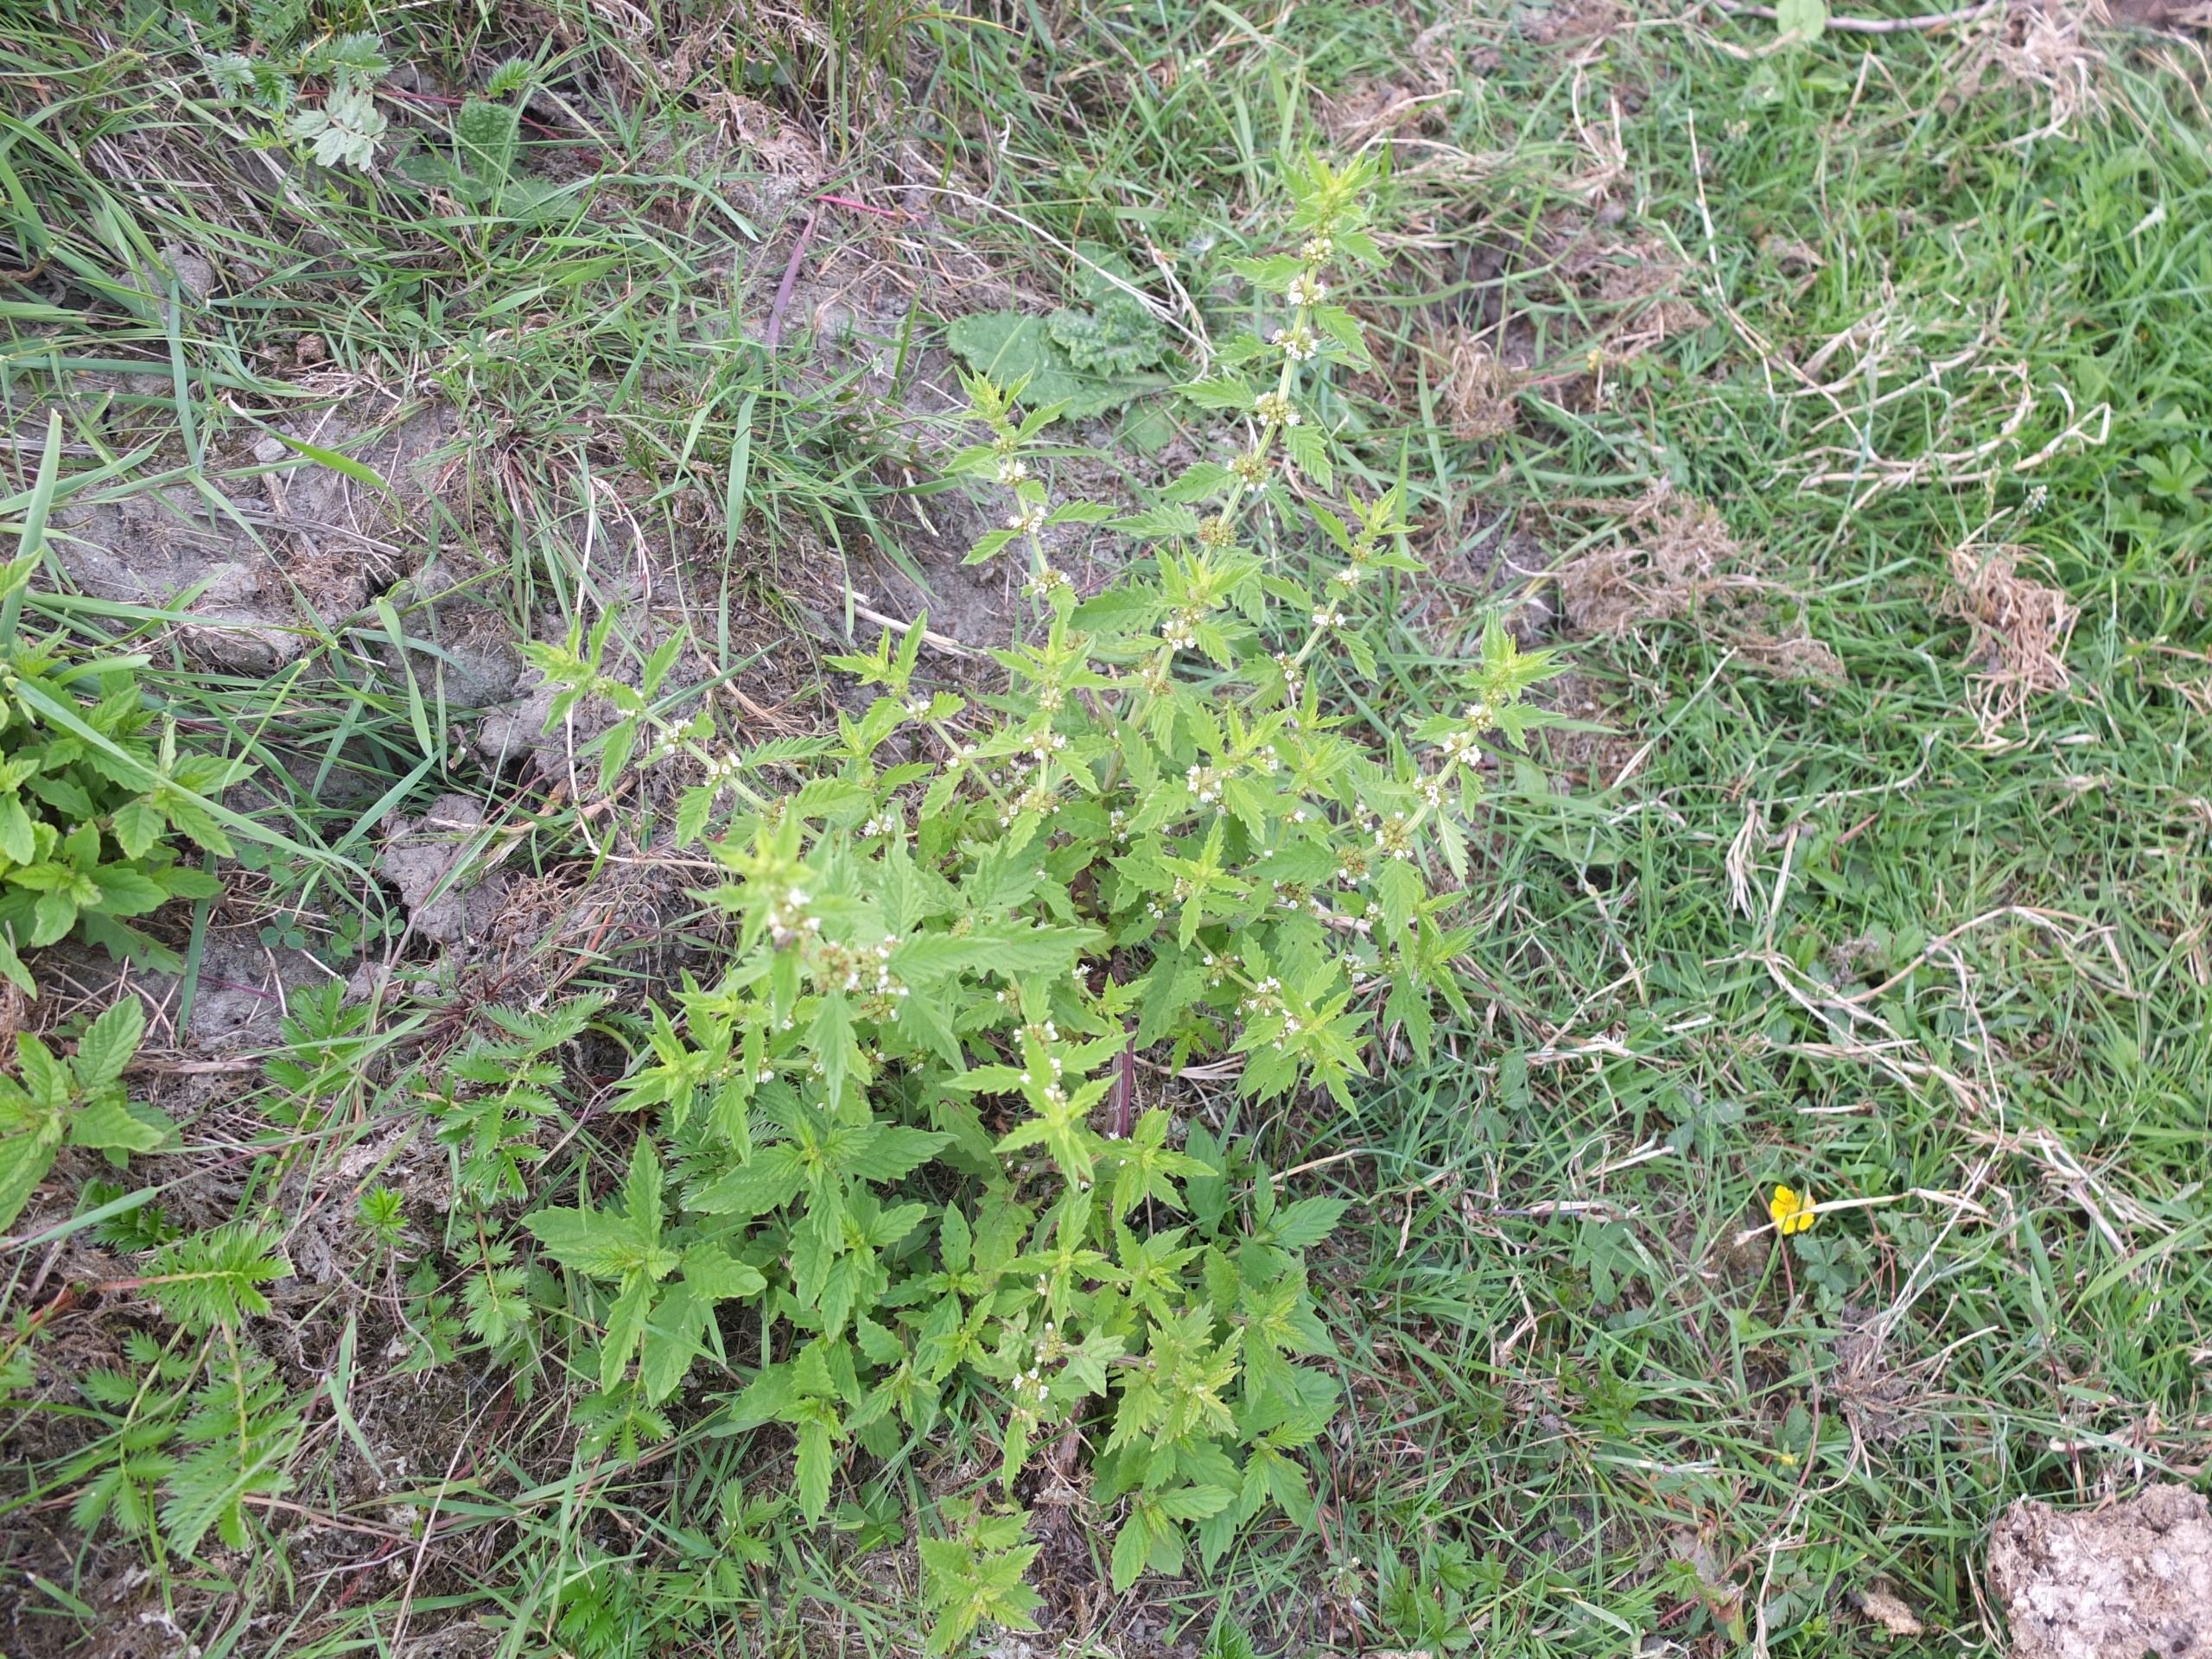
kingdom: Plantae
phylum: Tracheophyta
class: Magnoliopsida
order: Lamiales
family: Lamiaceae
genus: Lycopus
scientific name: Lycopus europaeus
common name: Sværtevæld
